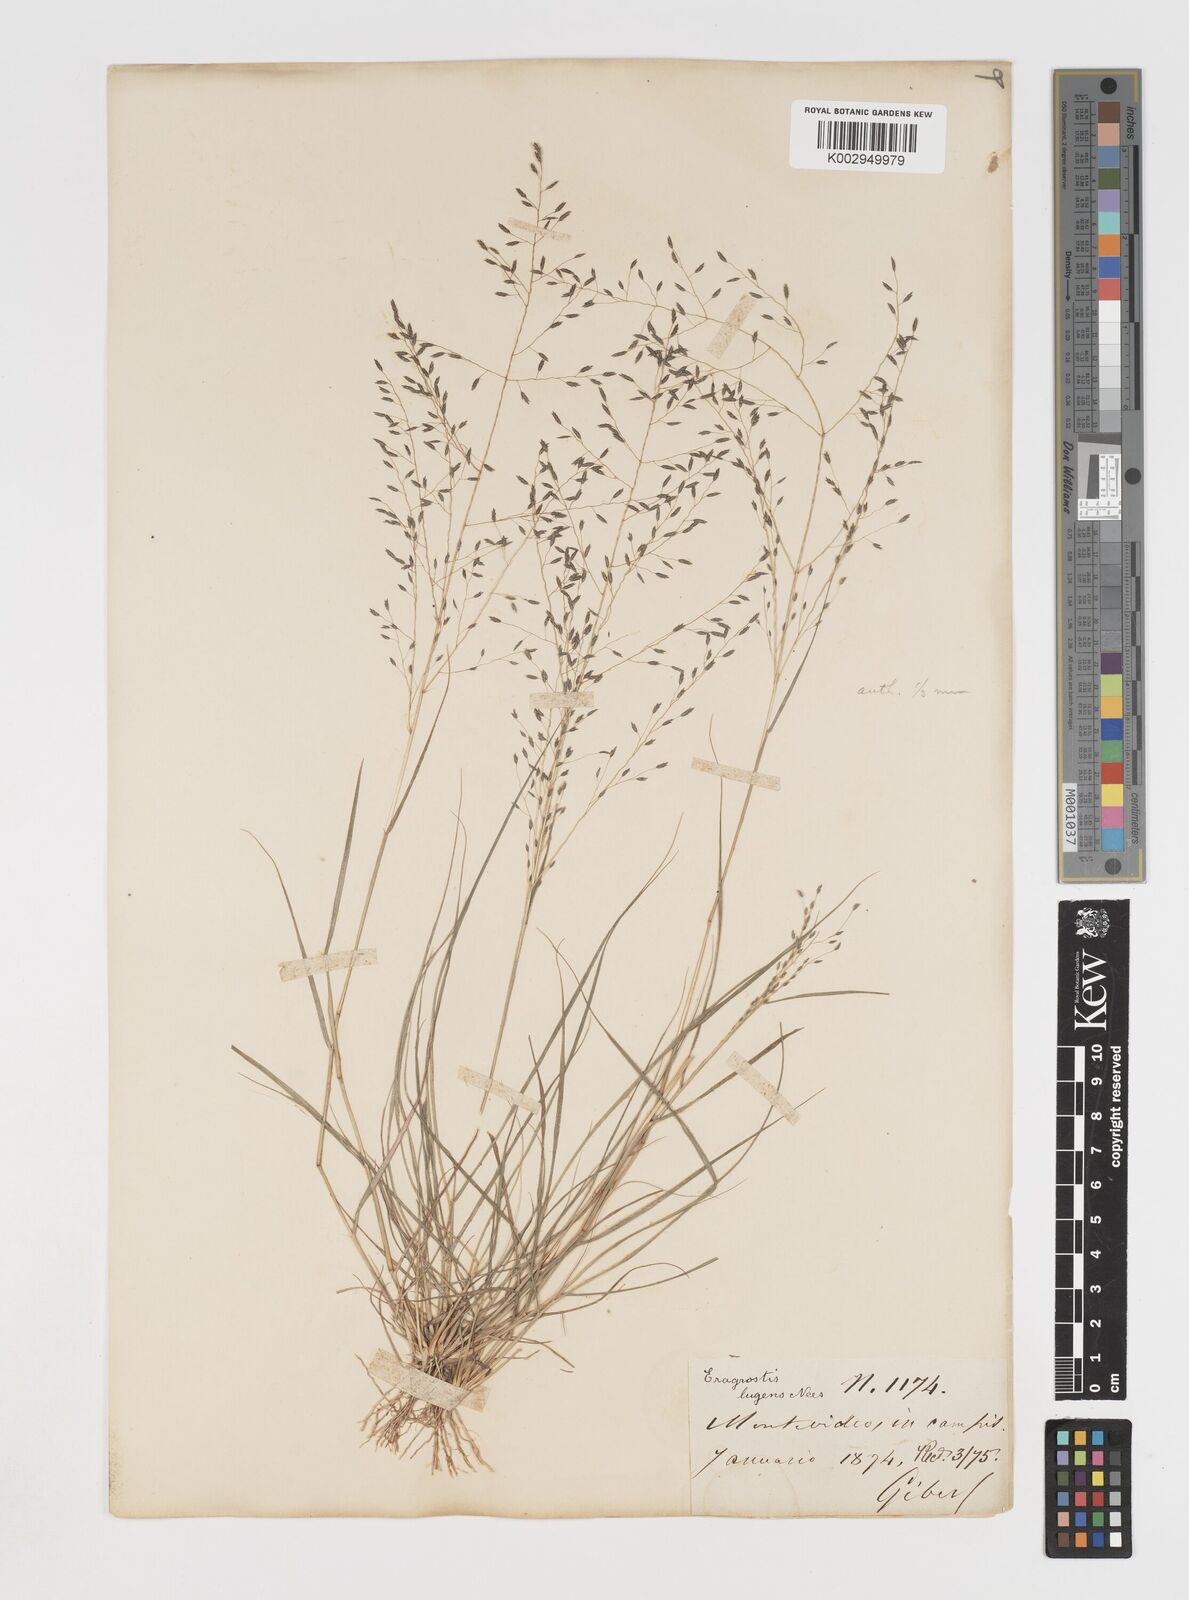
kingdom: Plantae
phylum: Tracheophyta
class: Liliopsida
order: Poales
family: Poaceae
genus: Eragrostis
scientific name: Eragrostis
